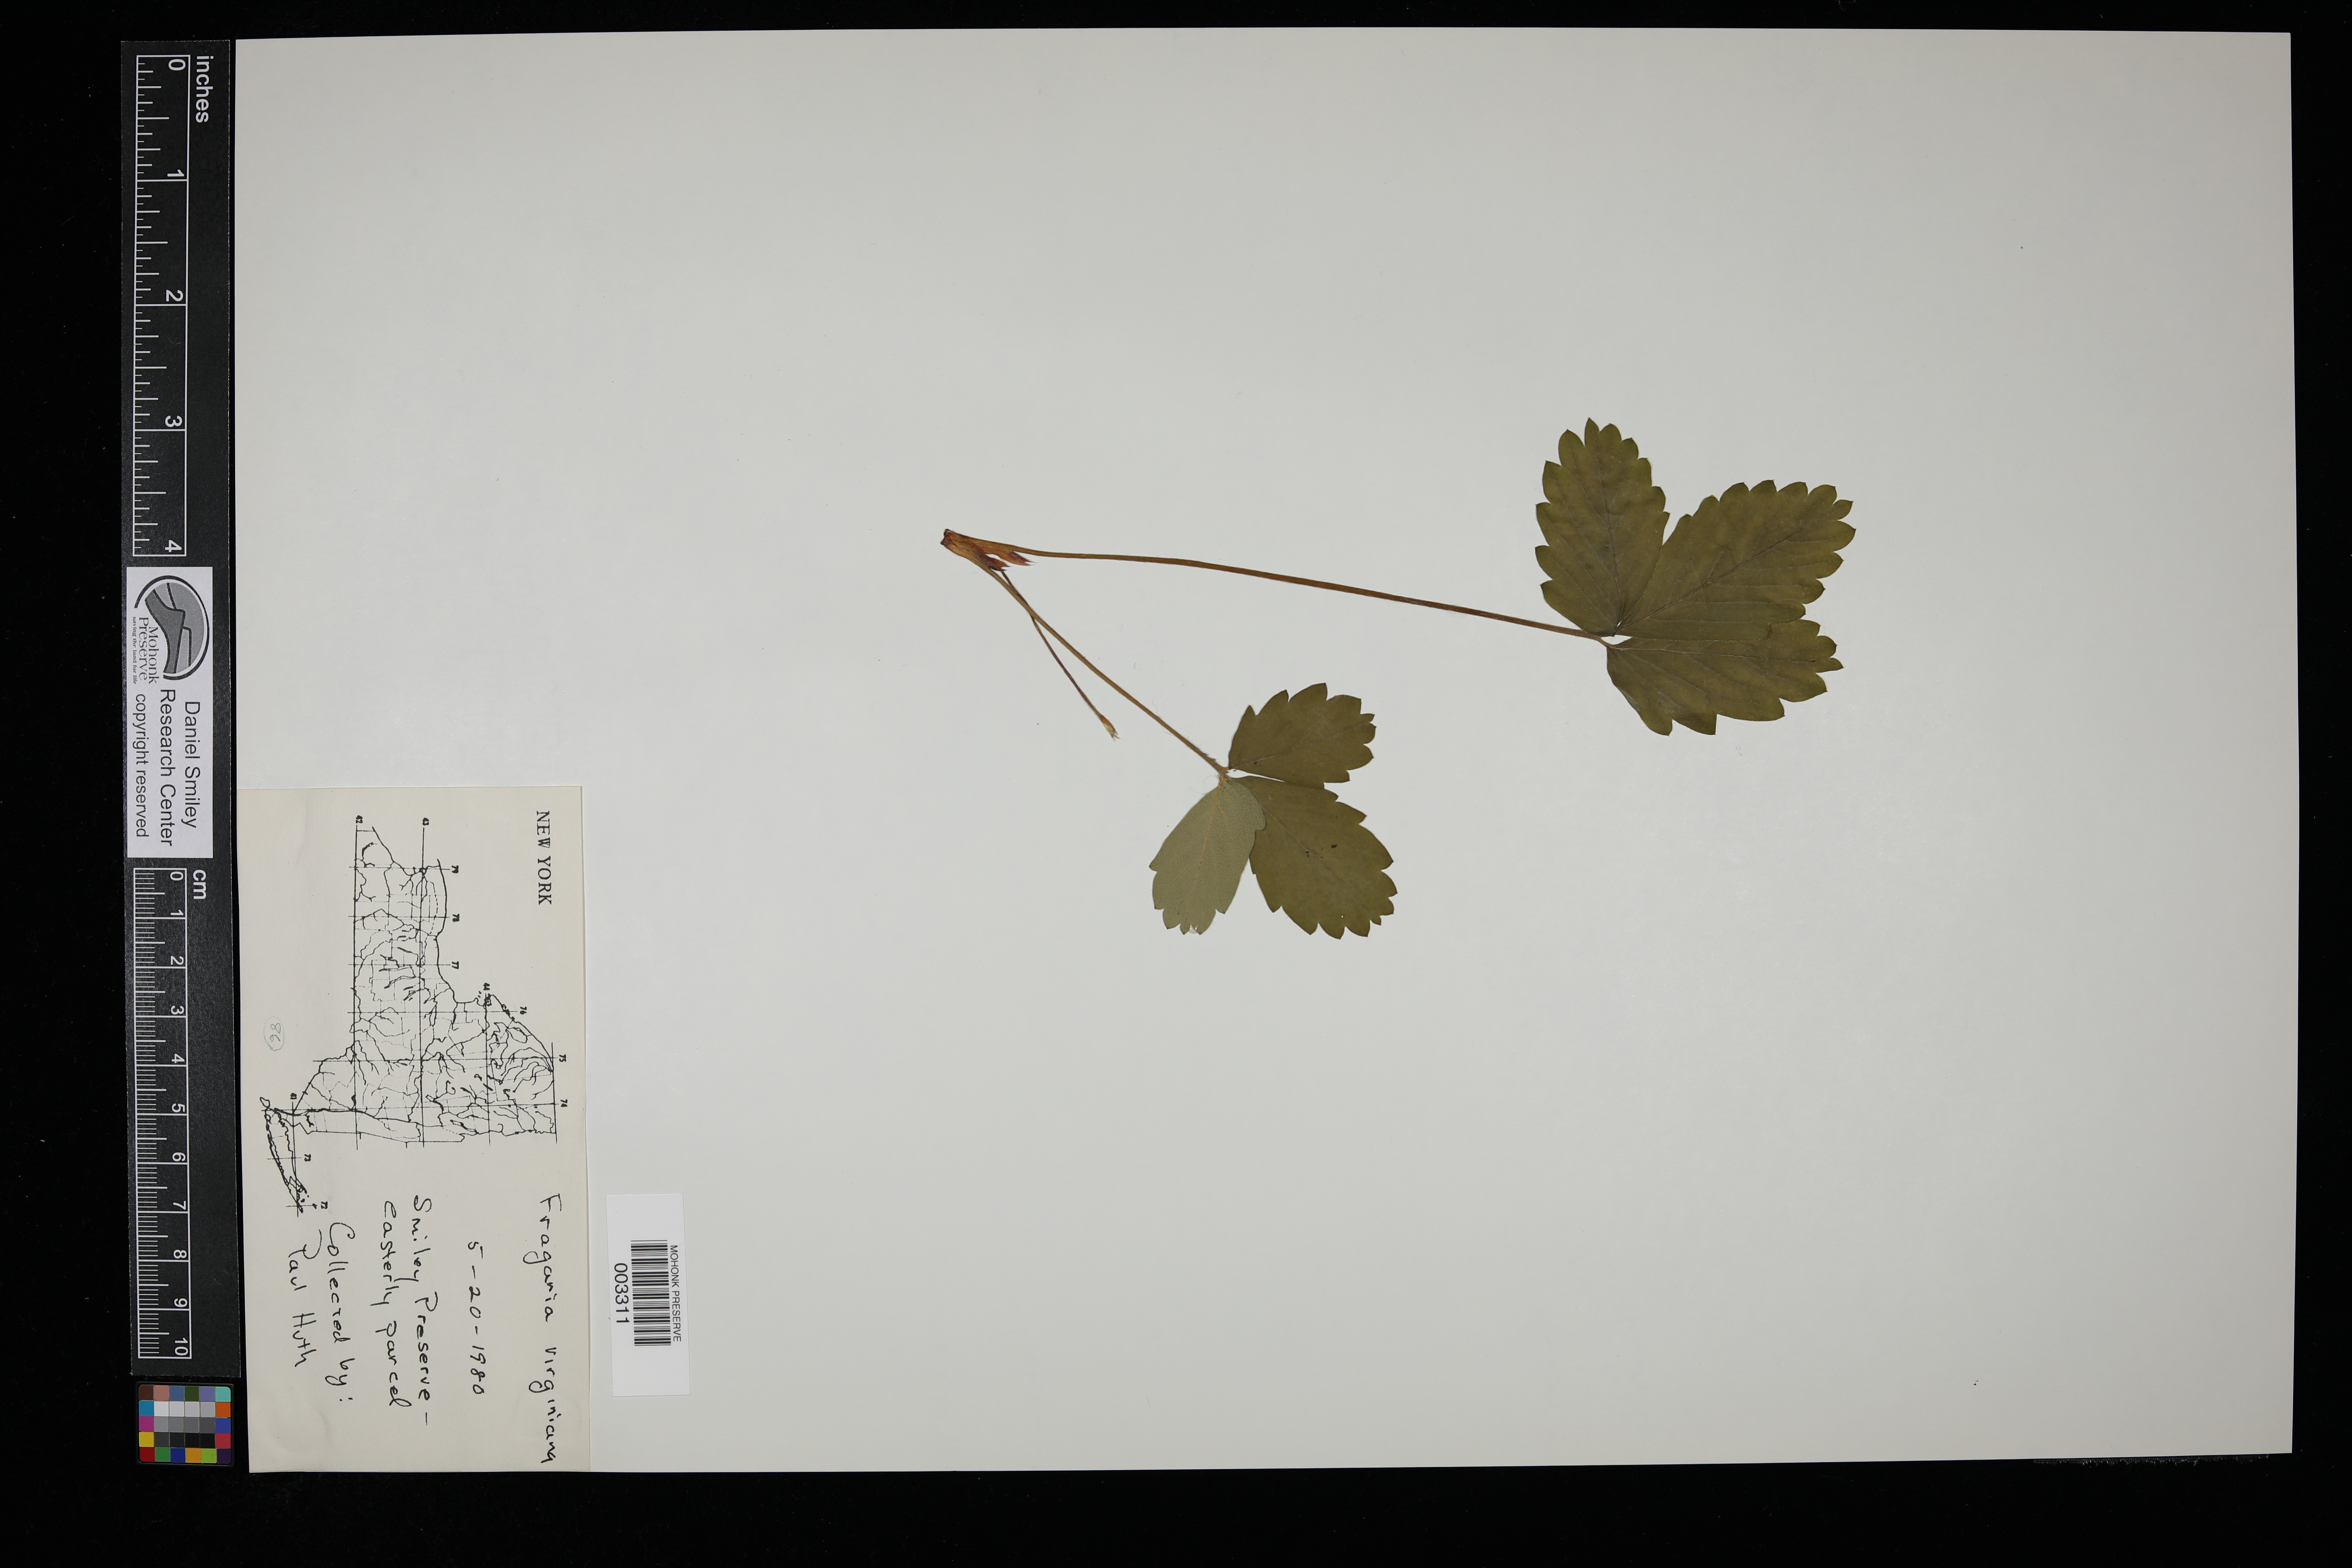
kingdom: Plantae
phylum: Tracheophyta
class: Magnoliopsida
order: Rosales
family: Rosaceae
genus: Fragaria
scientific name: Fragaria virginiana
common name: Thickleaved wild strawberry
